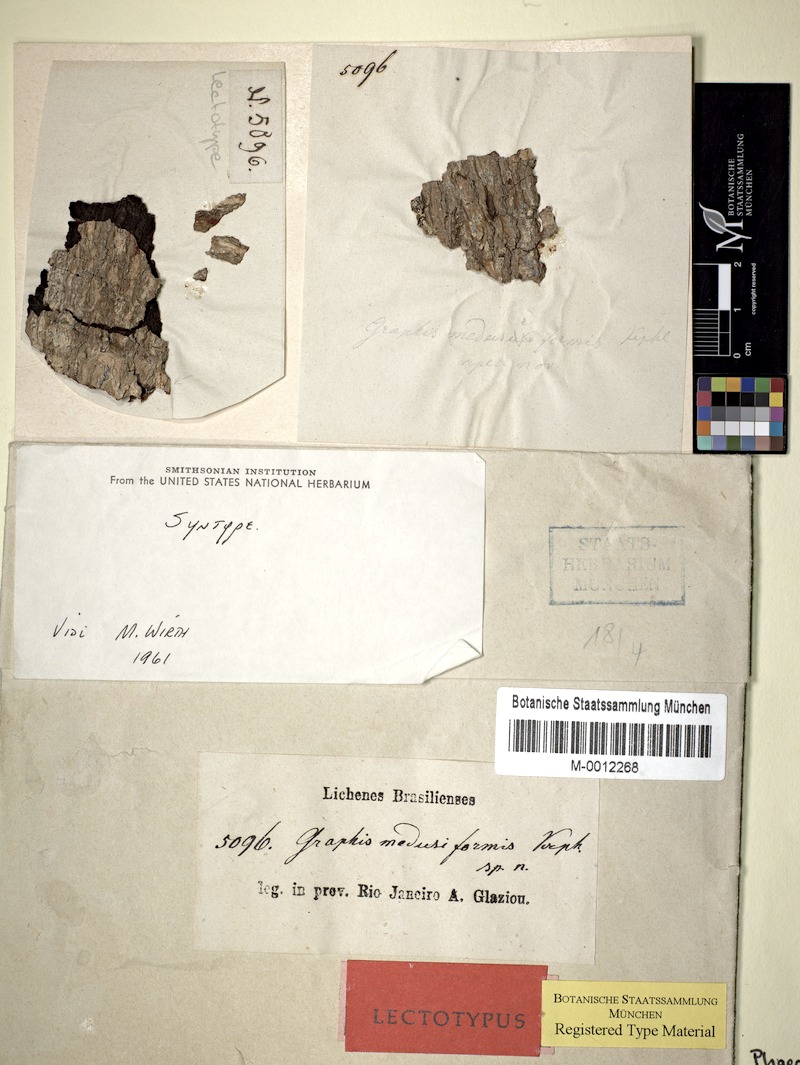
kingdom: Fungi
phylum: Ascomycota
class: Lecanoromycetes
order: Ostropales
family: Graphidaceae
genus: Phaeographis
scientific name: Phaeographis
